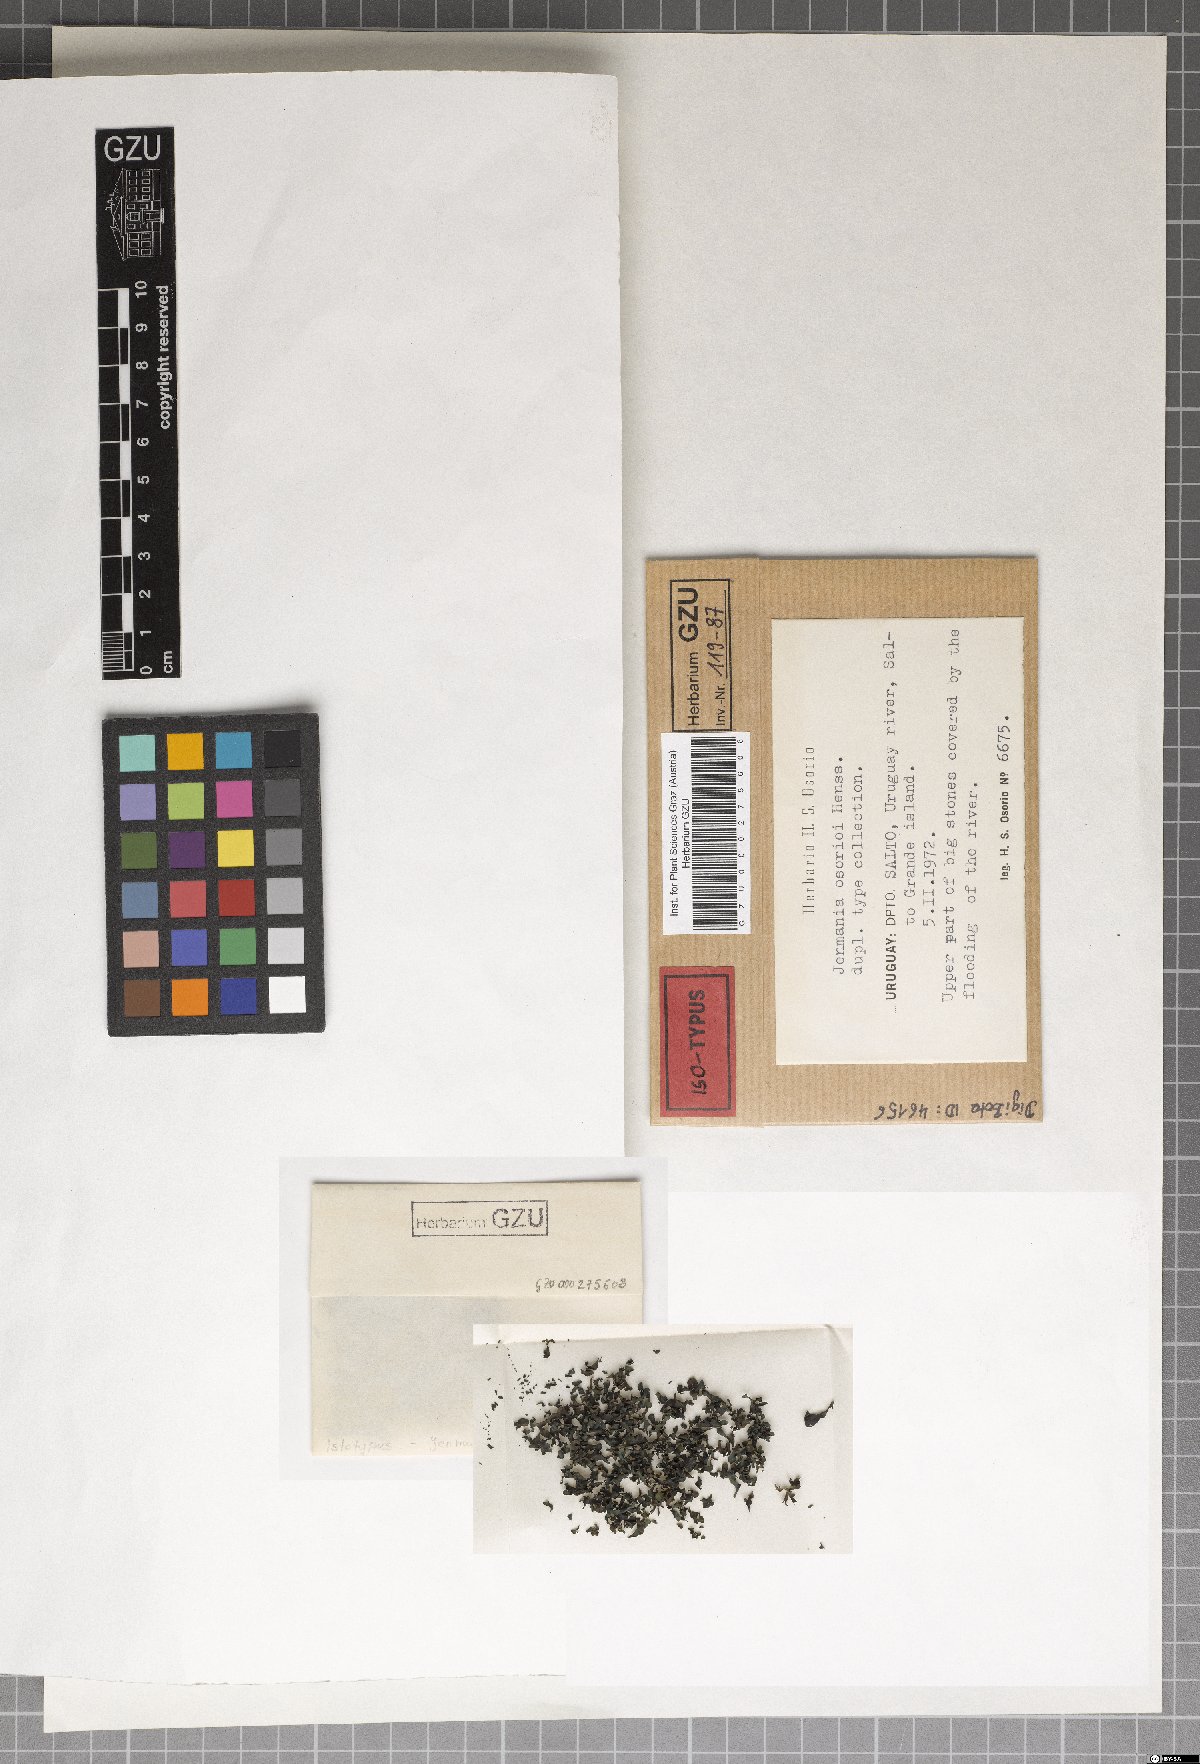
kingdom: Fungi
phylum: Ascomycota
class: Lichinomycetes
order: Lichinales
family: Lichinaceae
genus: Jenmania
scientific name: Jenmania osorioi
